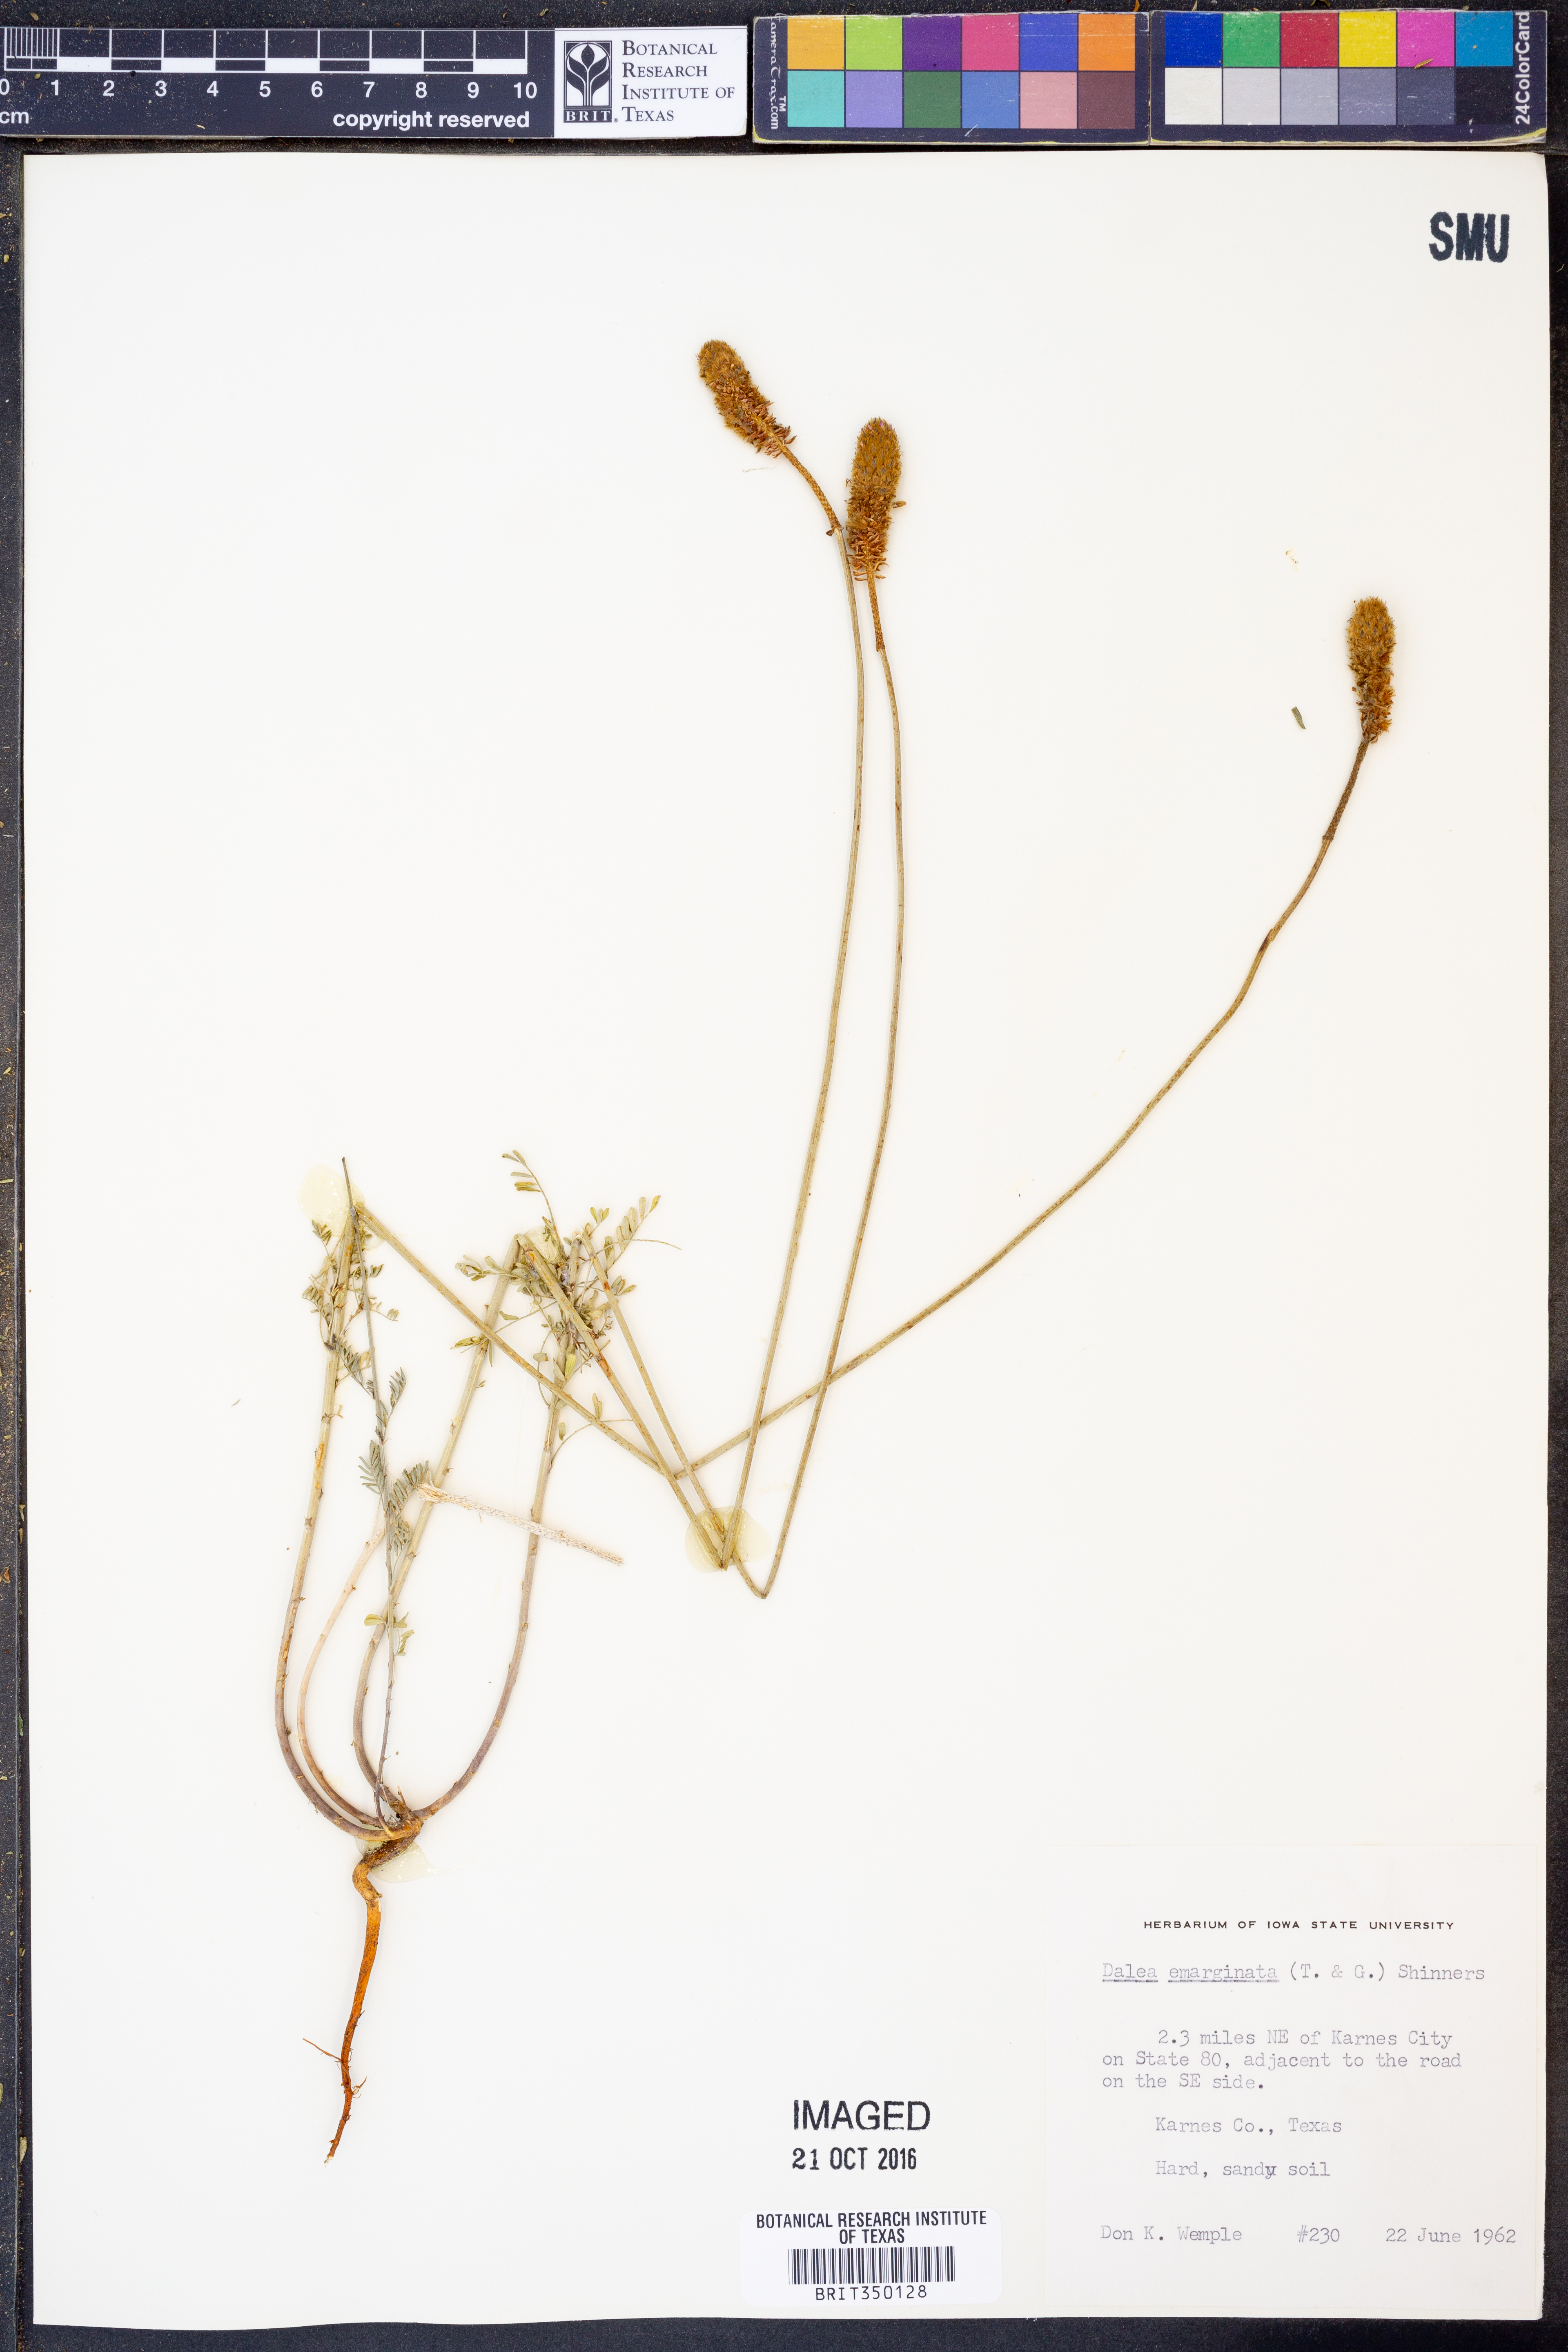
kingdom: Plantae
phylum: Tracheophyta
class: Magnoliopsida
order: Fabales
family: Fabaceae
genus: Dalea
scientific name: Dalea emarginata
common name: Wedgeleaf prairie clover
